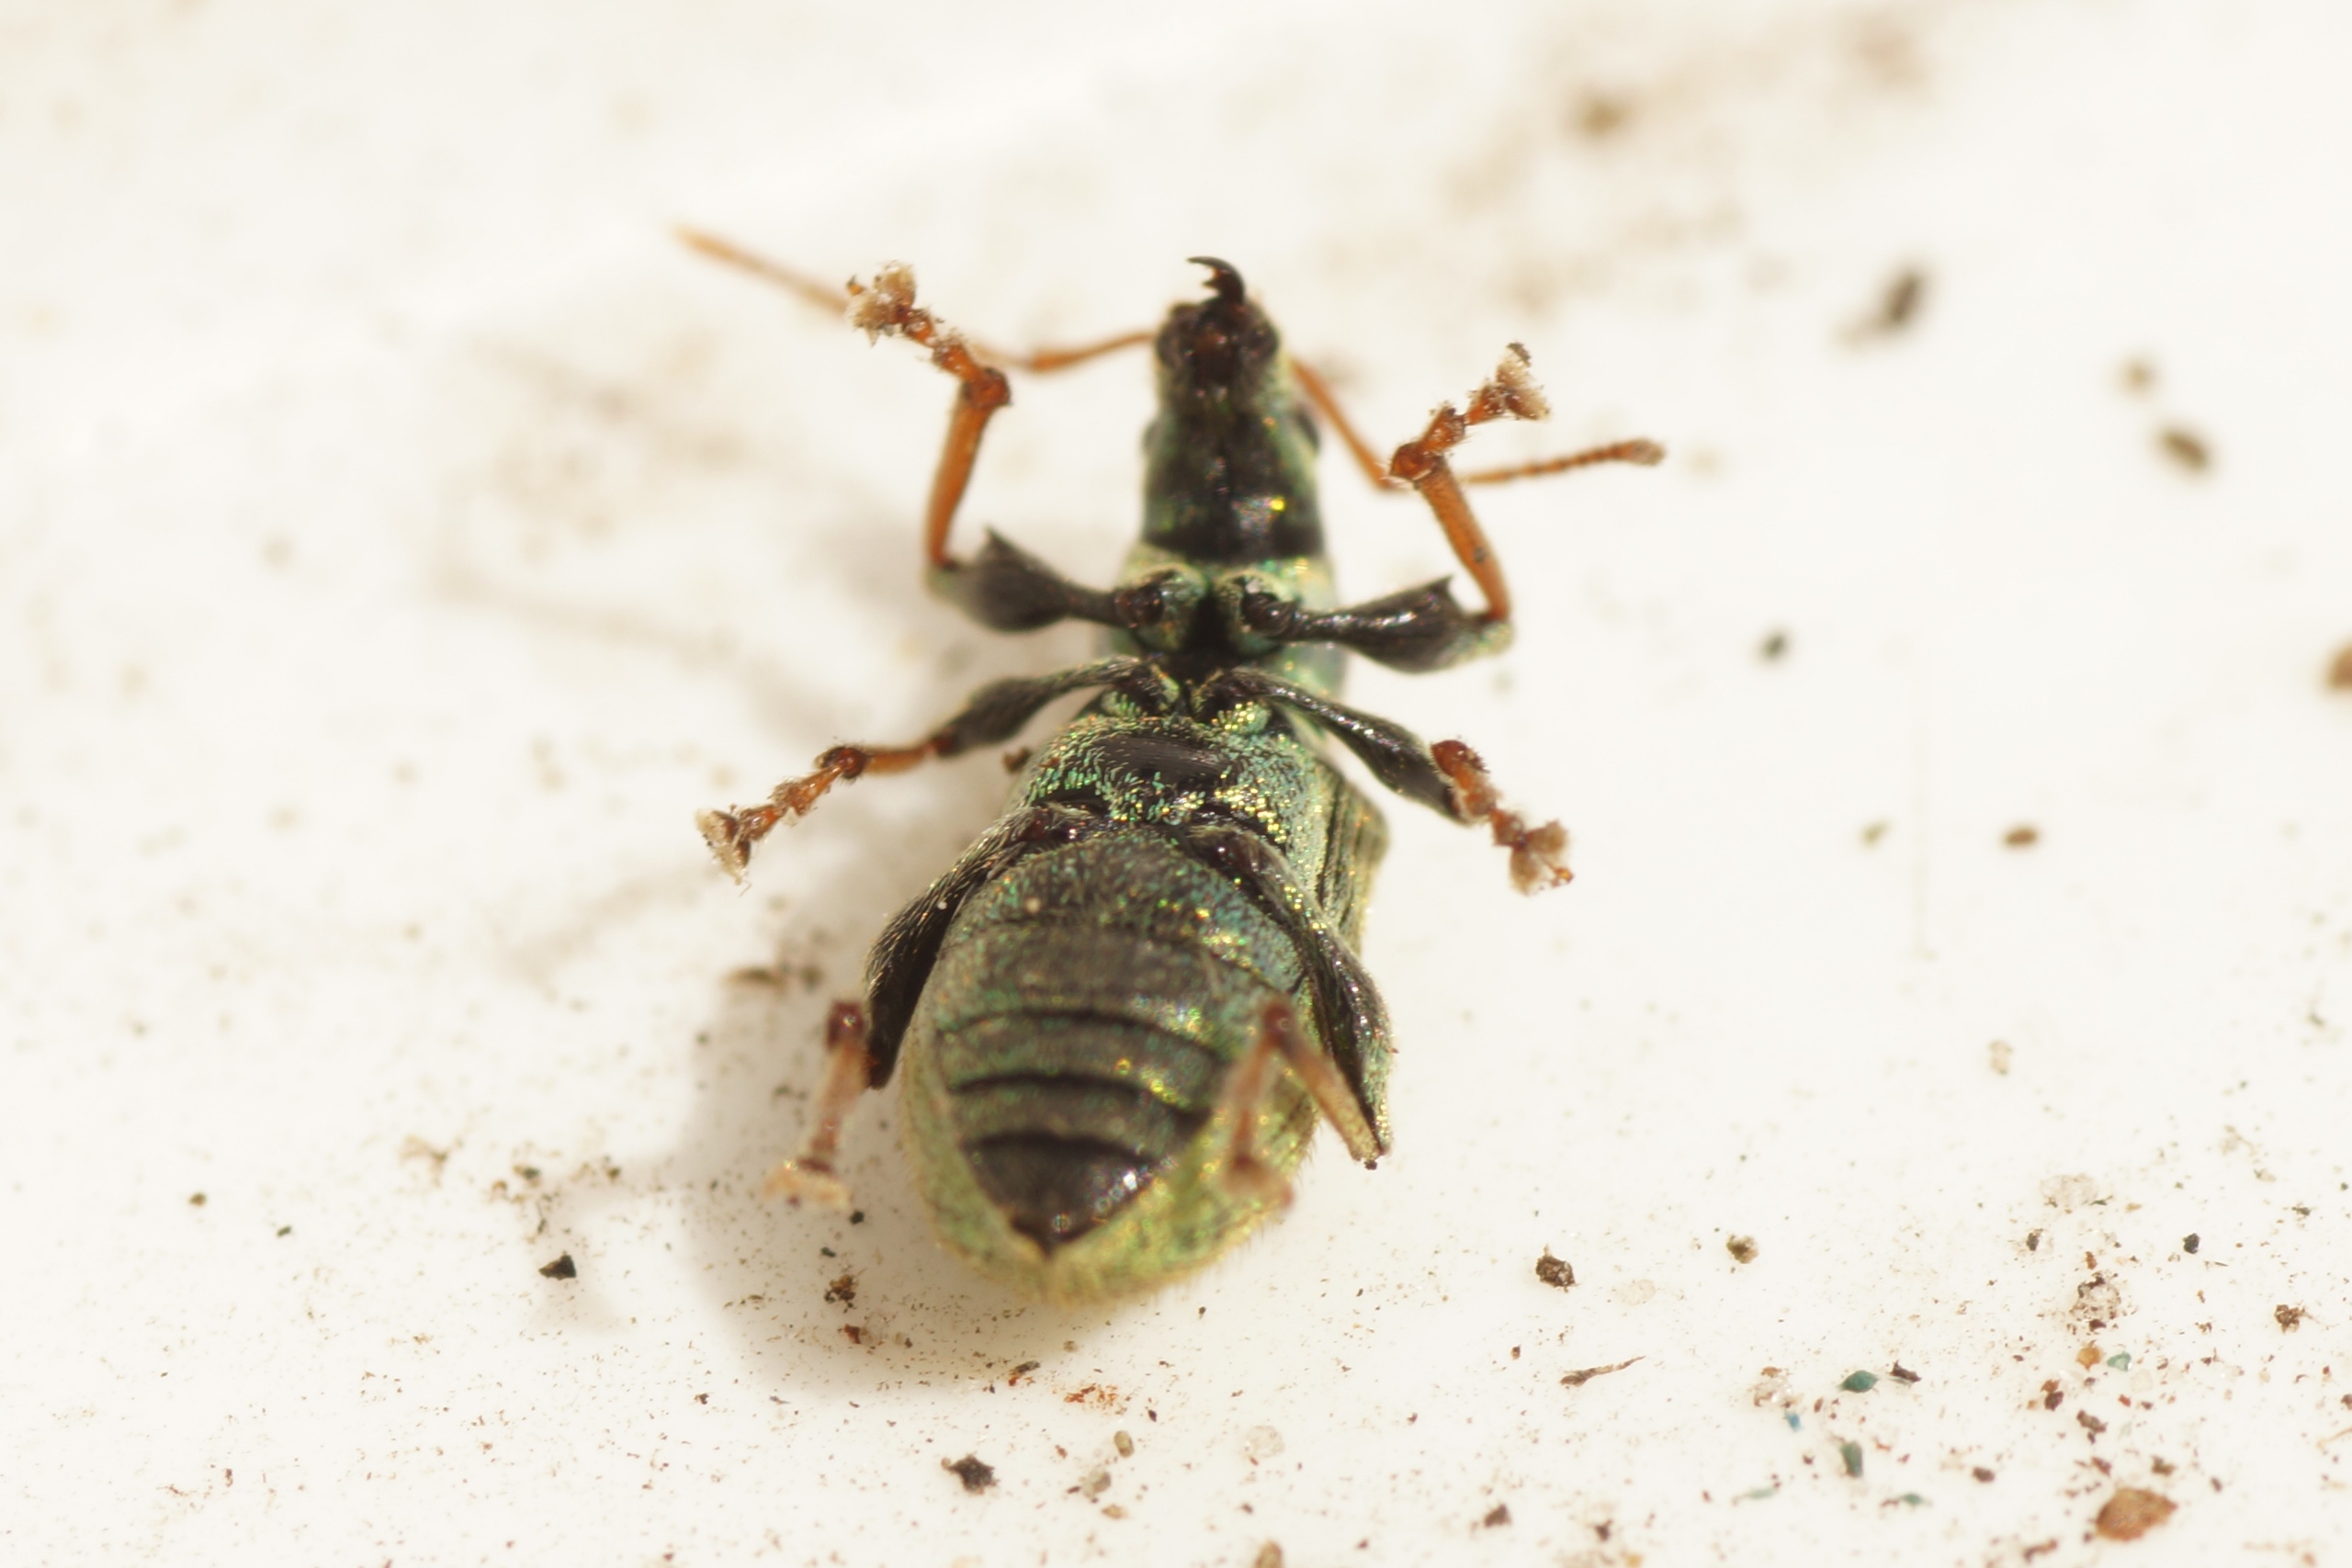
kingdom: Animalia
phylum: Arthropoda
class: Insecta
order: Coleoptera
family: Curculionidae
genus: Phyllobius
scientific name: Phyllobius argentatus
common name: Bøgeløvsnudebille
